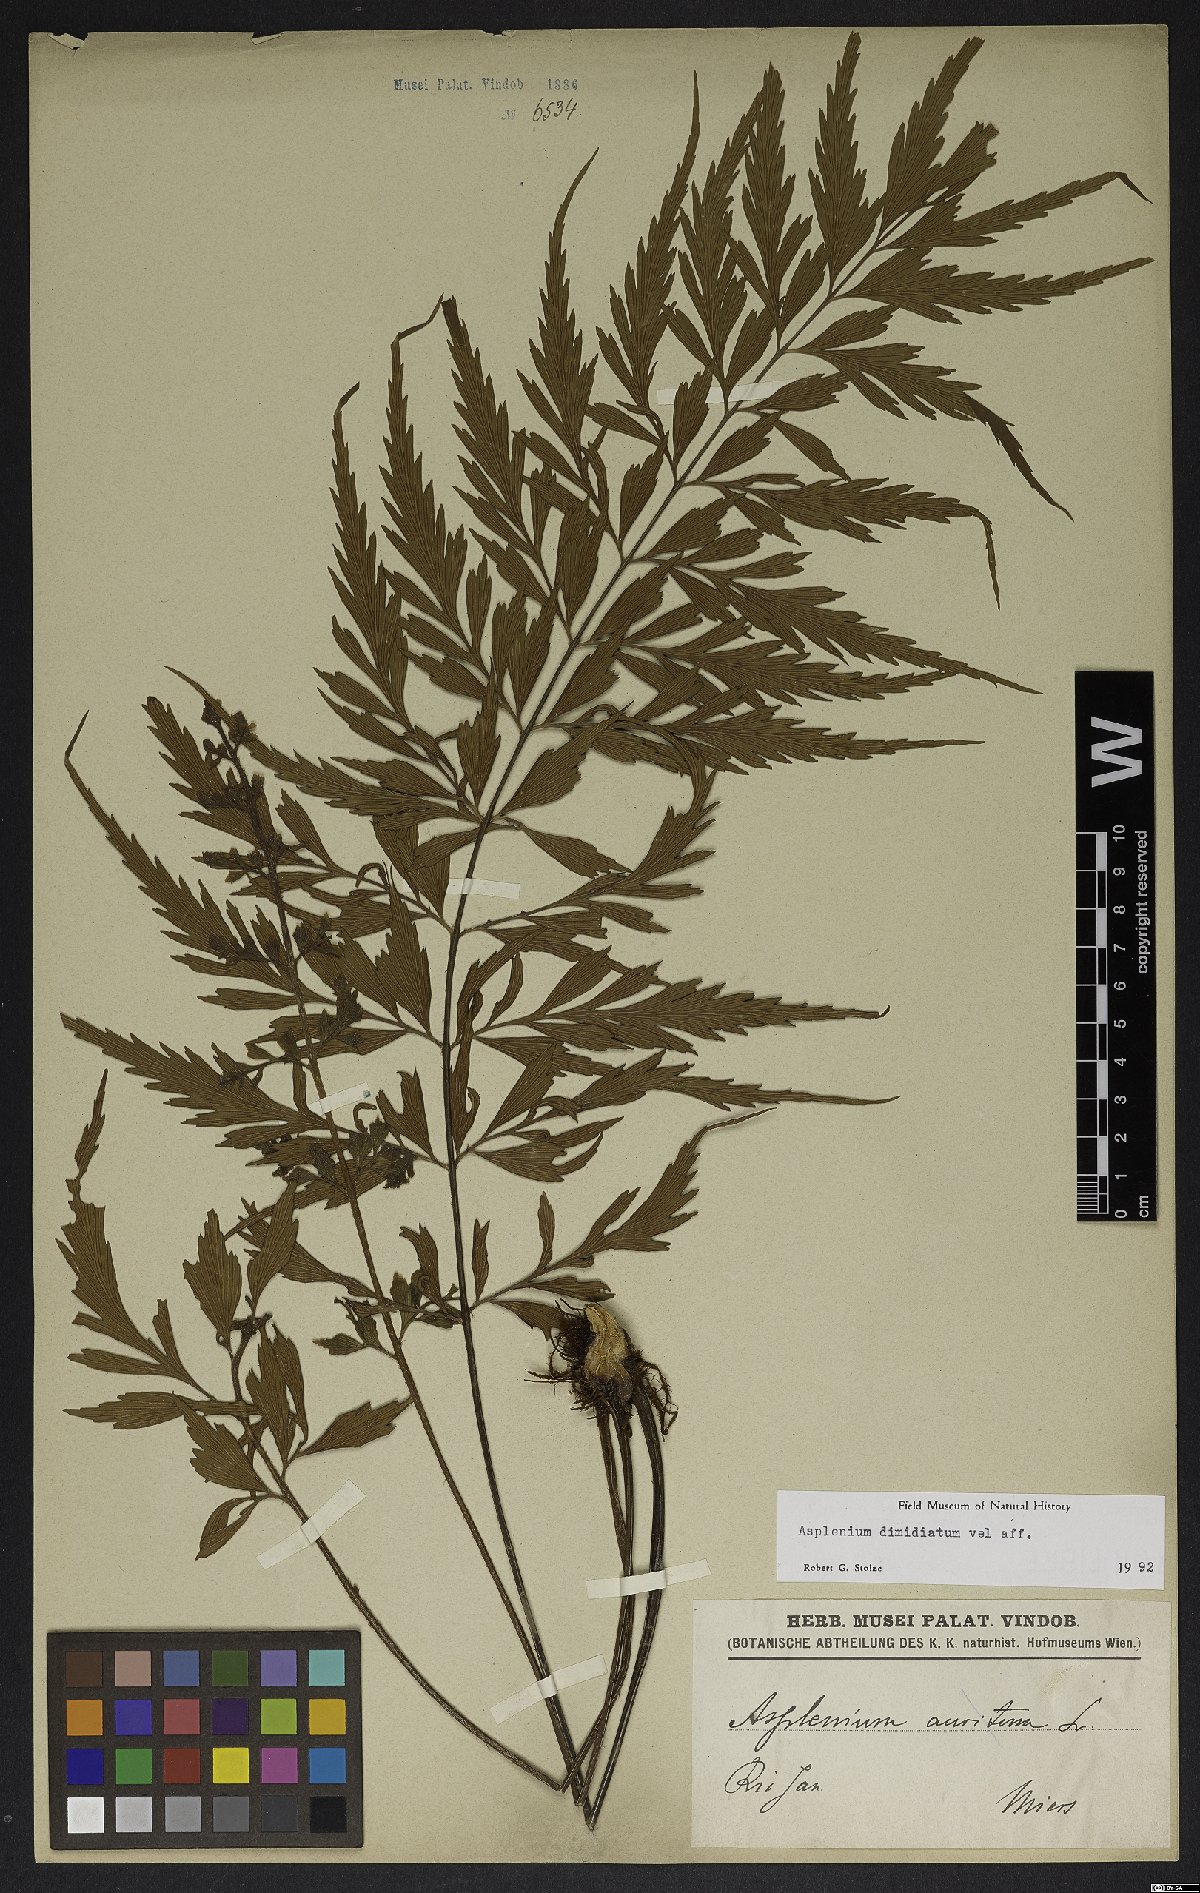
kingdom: Plantae
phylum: Tracheophyta
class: Polypodiopsida
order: Polypodiales
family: Aspleniaceae
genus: Asplenium
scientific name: Asplenium jaundeense
